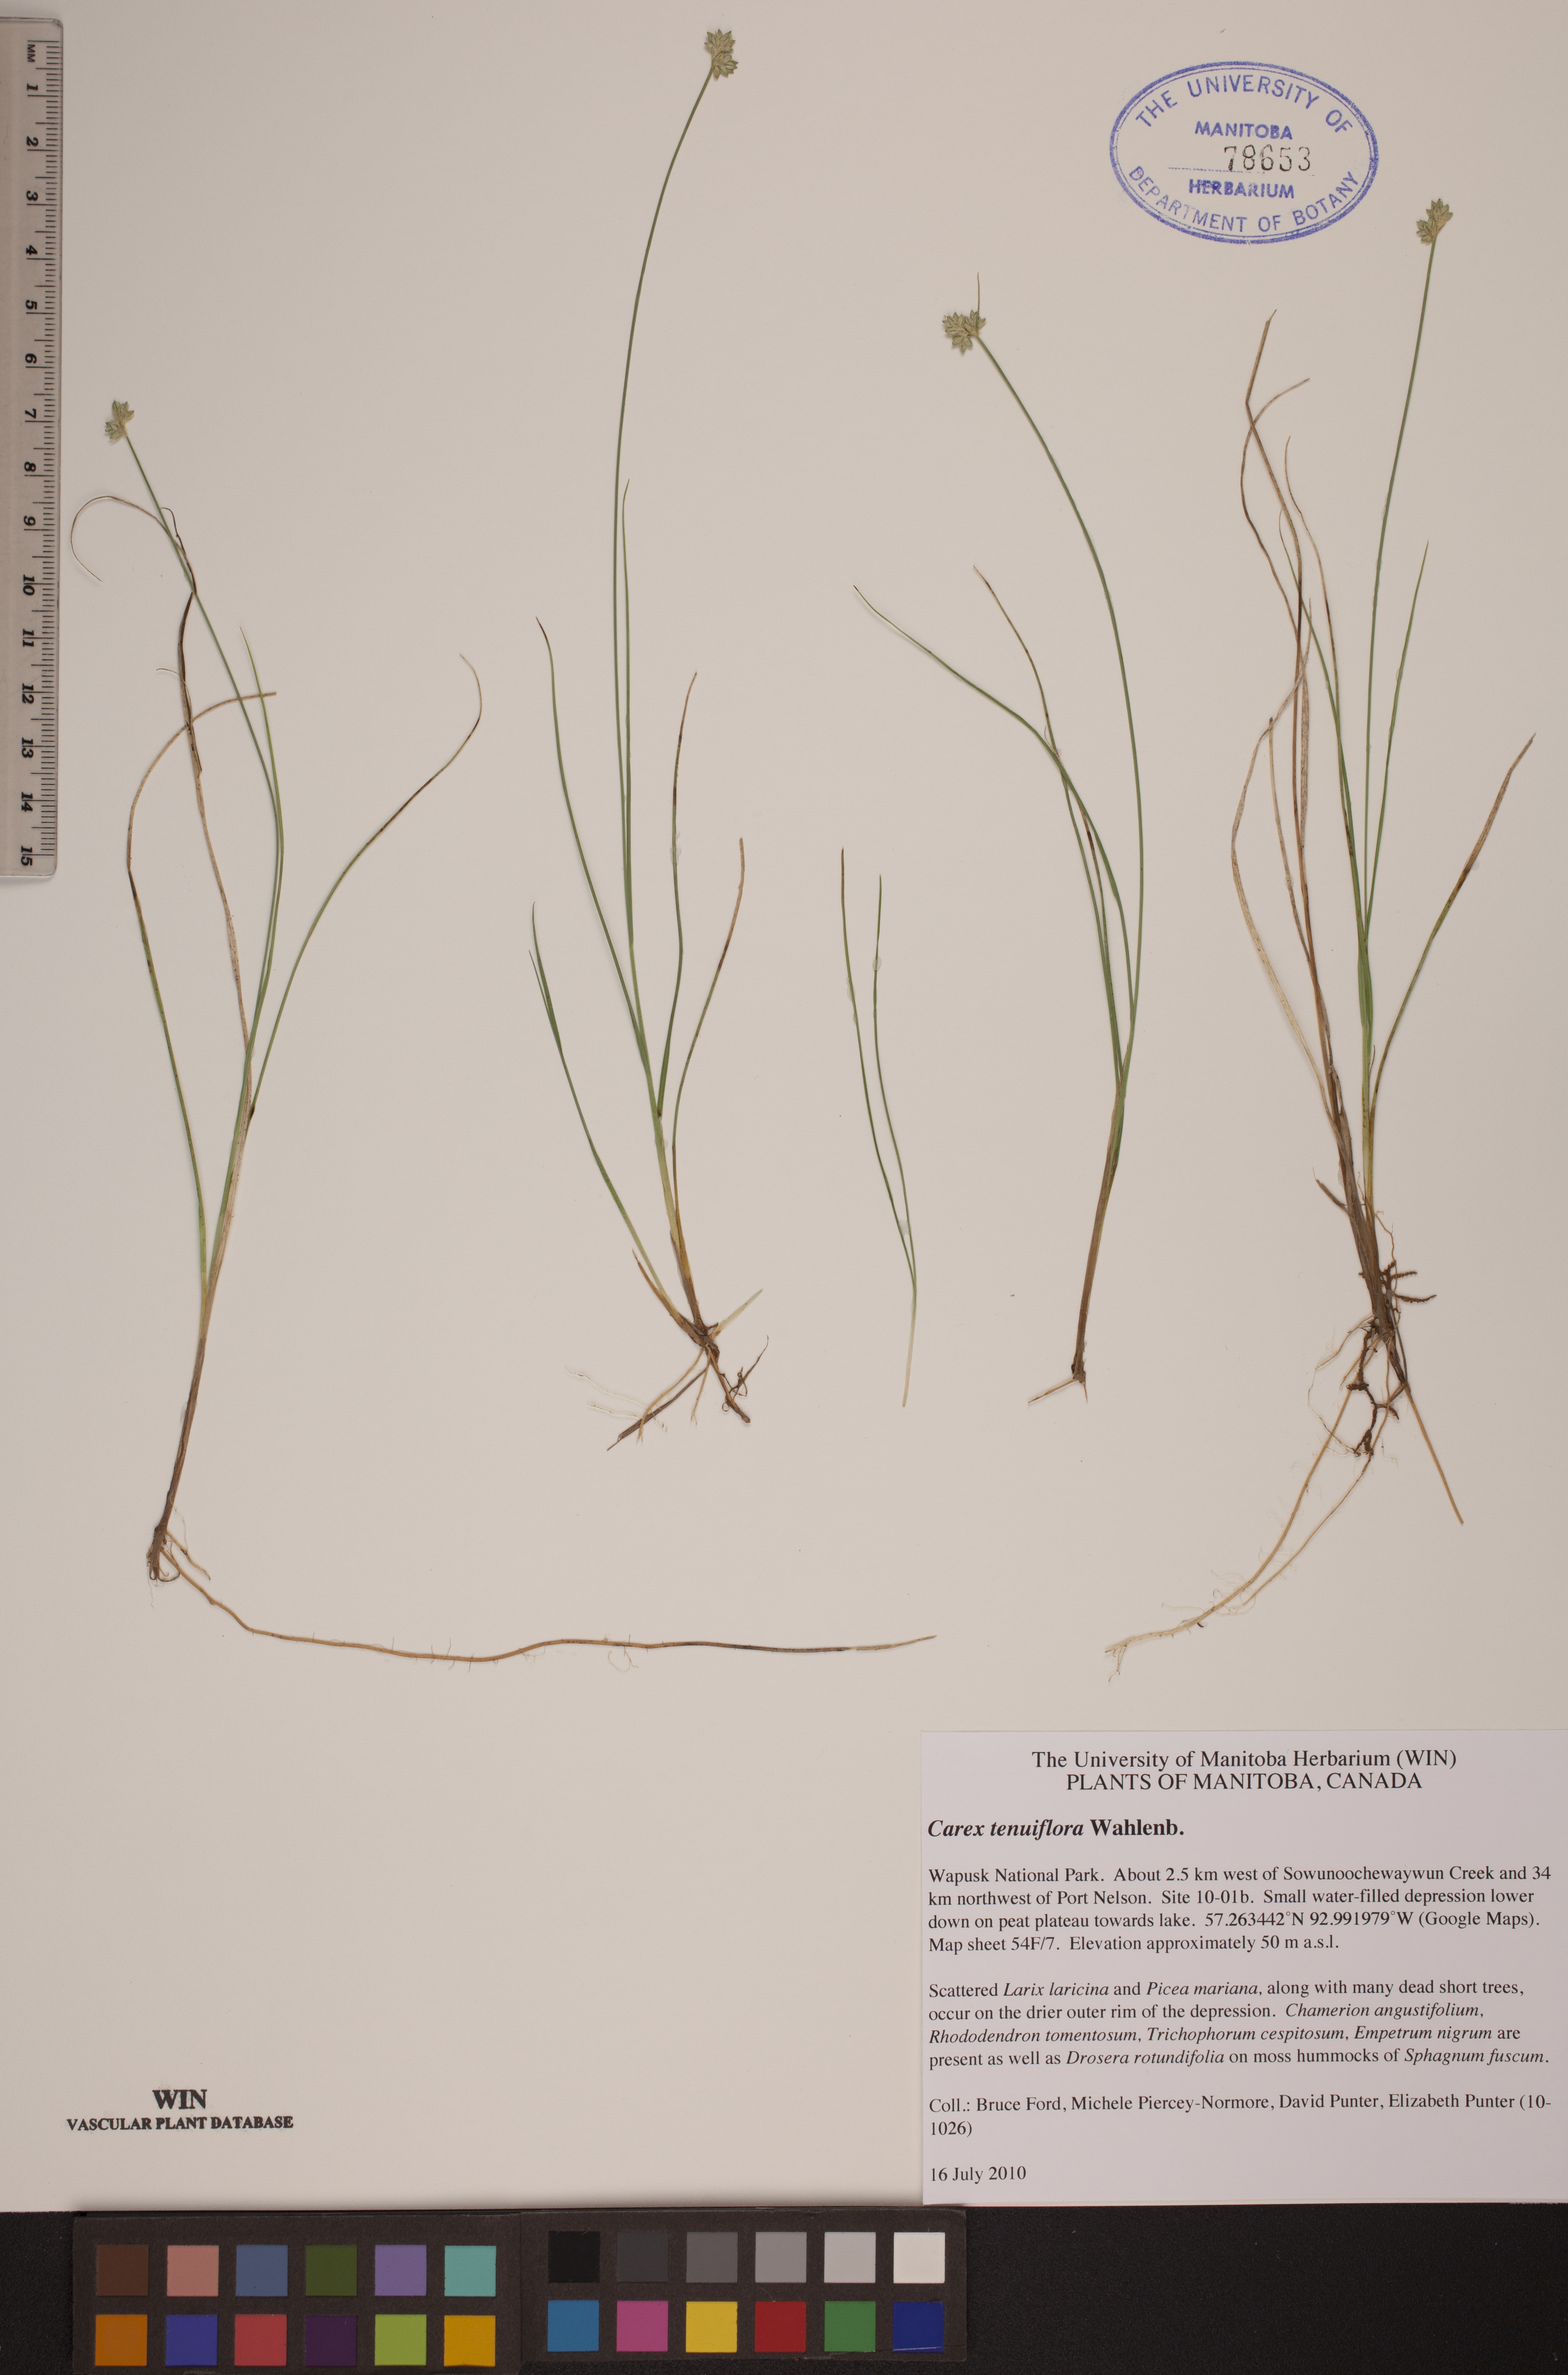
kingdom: Plantae
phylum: Tracheophyta
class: Liliopsida
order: Poales
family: Cyperaceae
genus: Carex
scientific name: Carex tenuiflora
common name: Sparse-flowered sedge
